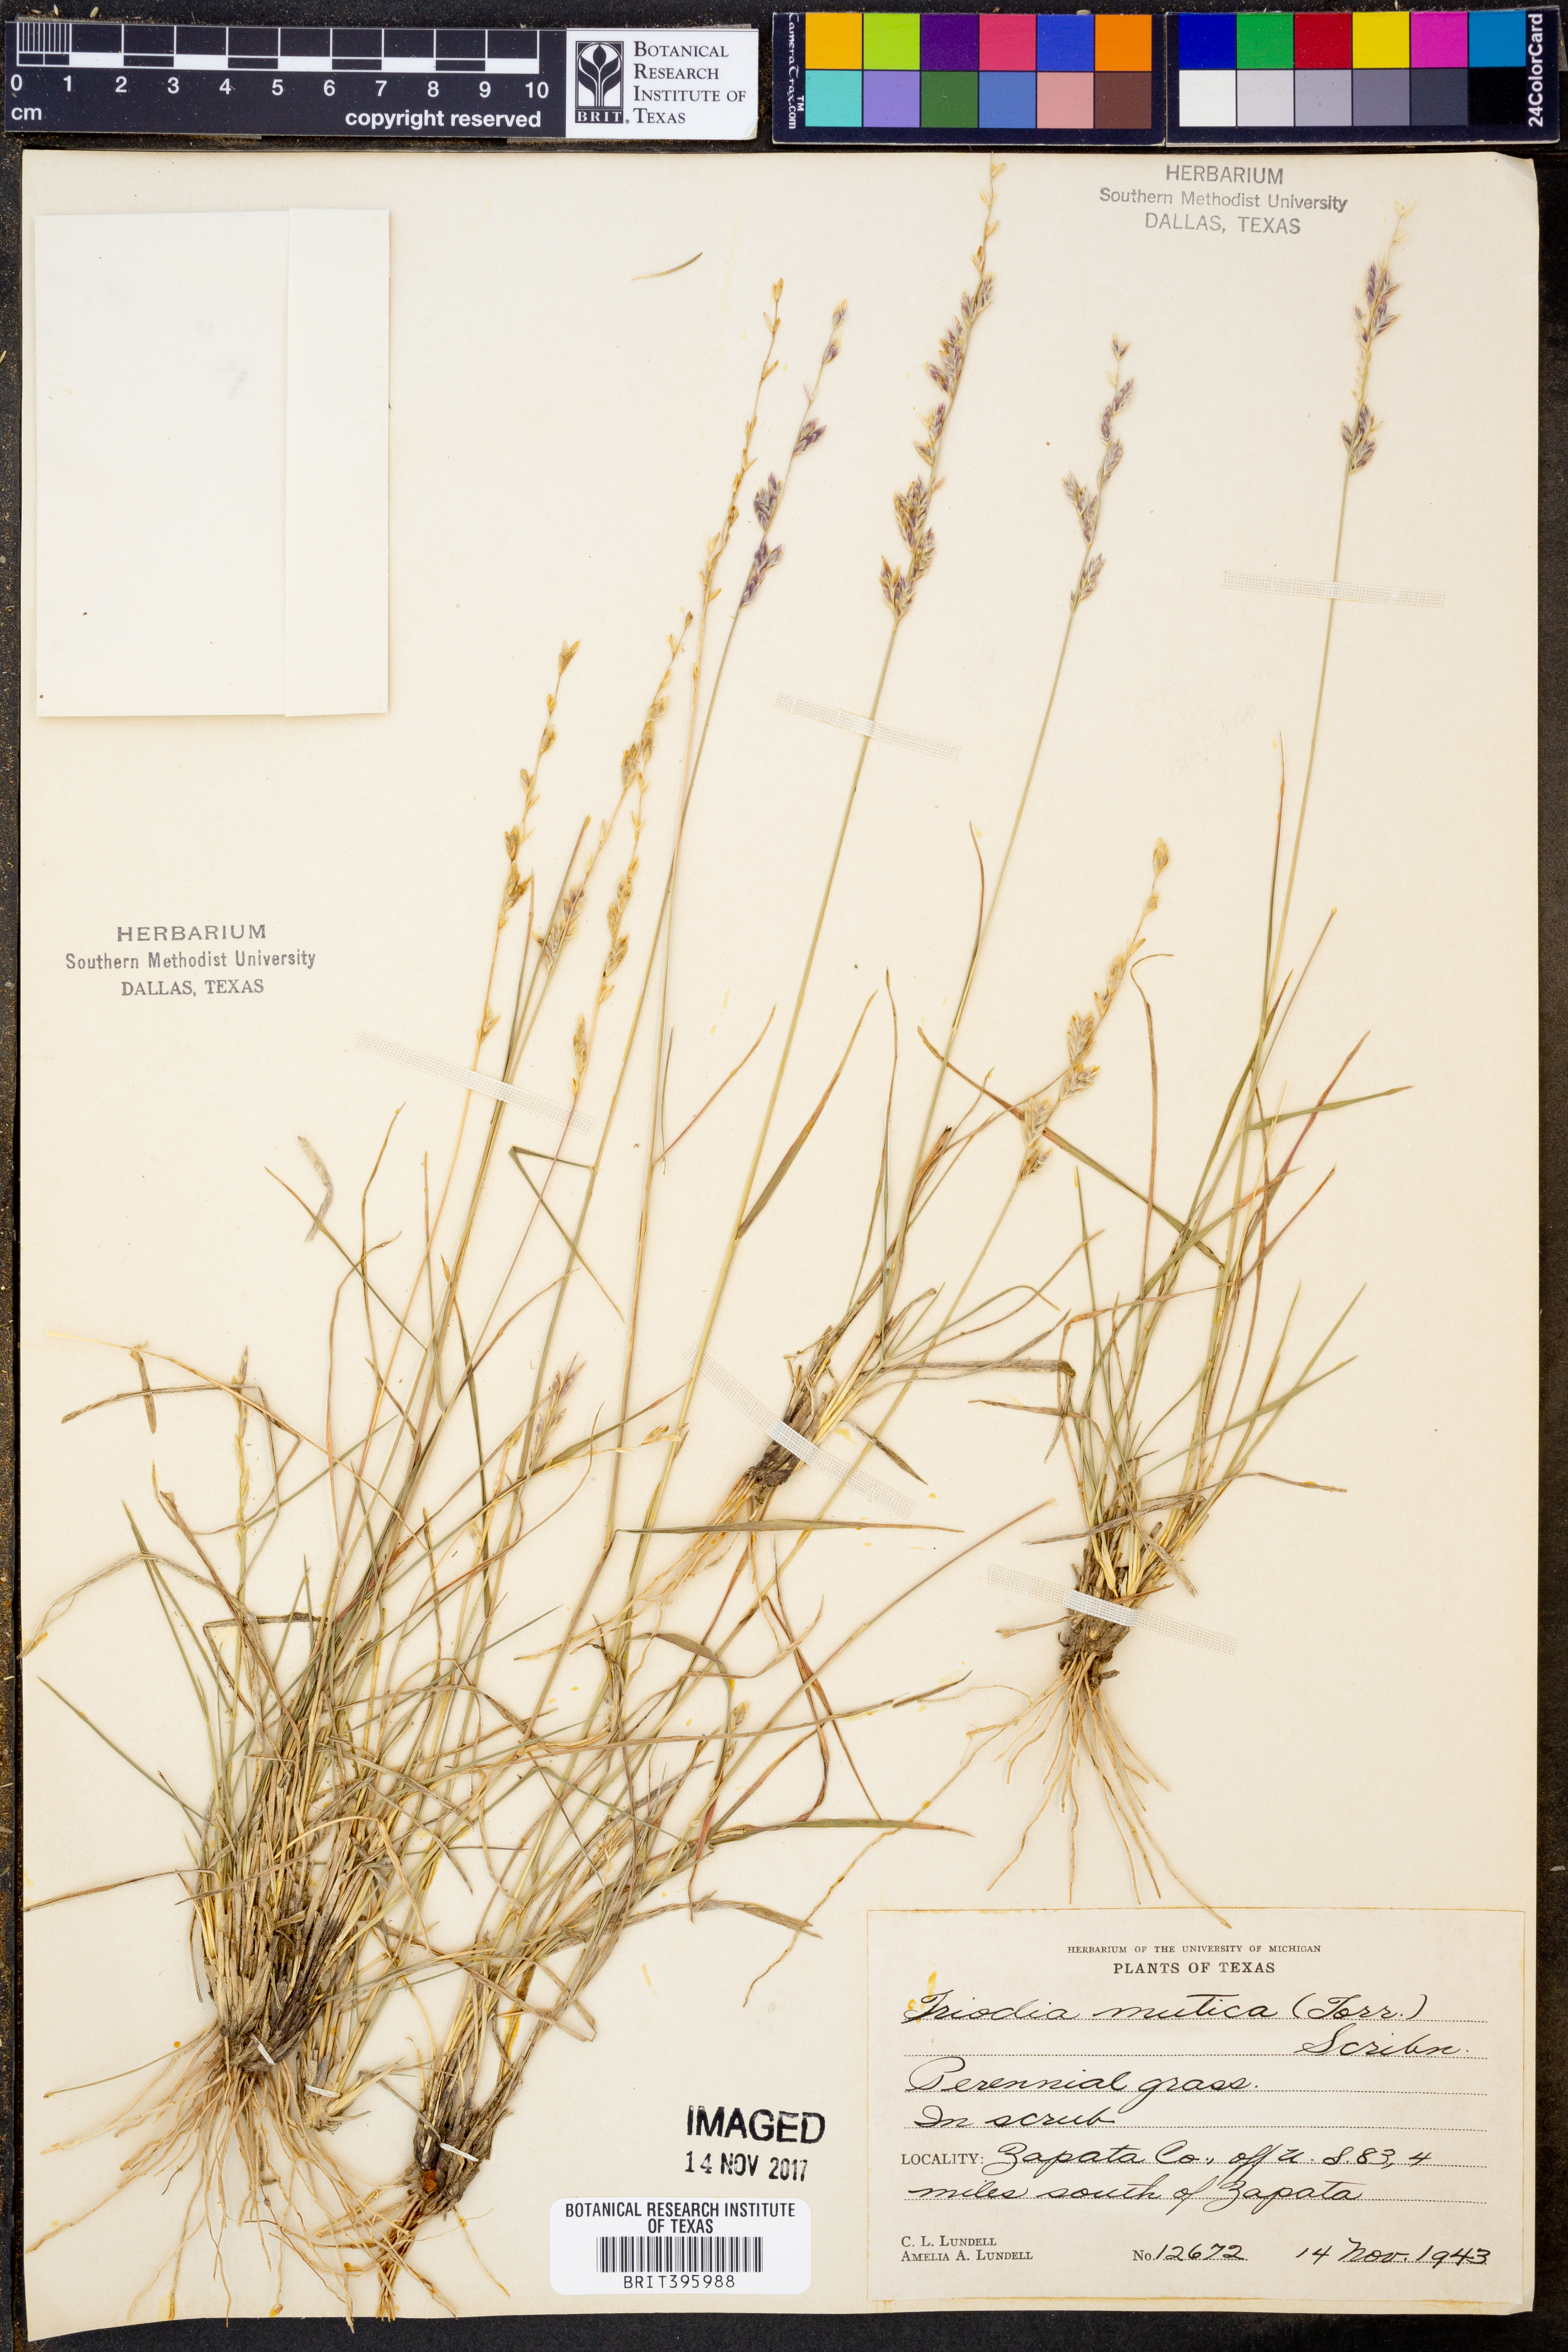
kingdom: Plantae
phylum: Tracheophyta
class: Liliopsida
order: Poales
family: Poaceae
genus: Tridentopsis
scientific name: Tridentopsis mutica
